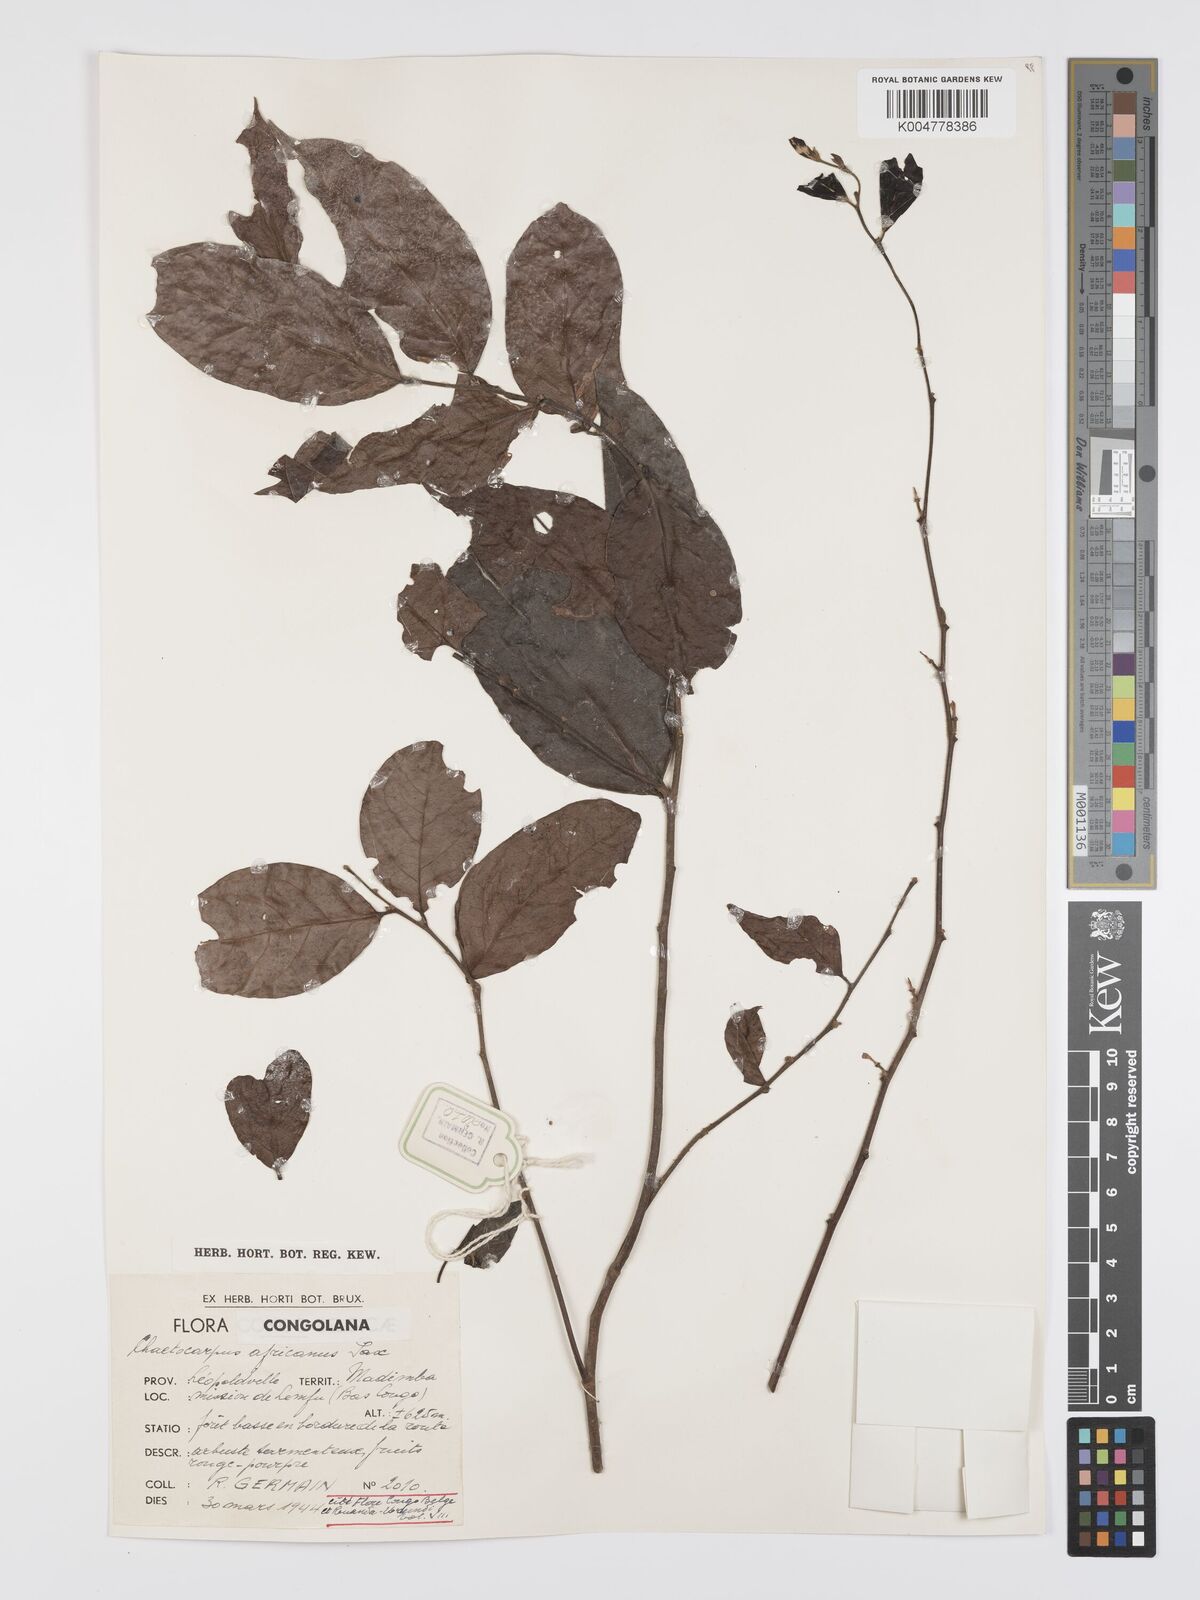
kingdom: Plantae
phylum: Tracheophyta
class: Magnoliopsida
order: Malpighiales
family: Peraceae
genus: Chaetocarpus
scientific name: Chaetocarpus africanus
